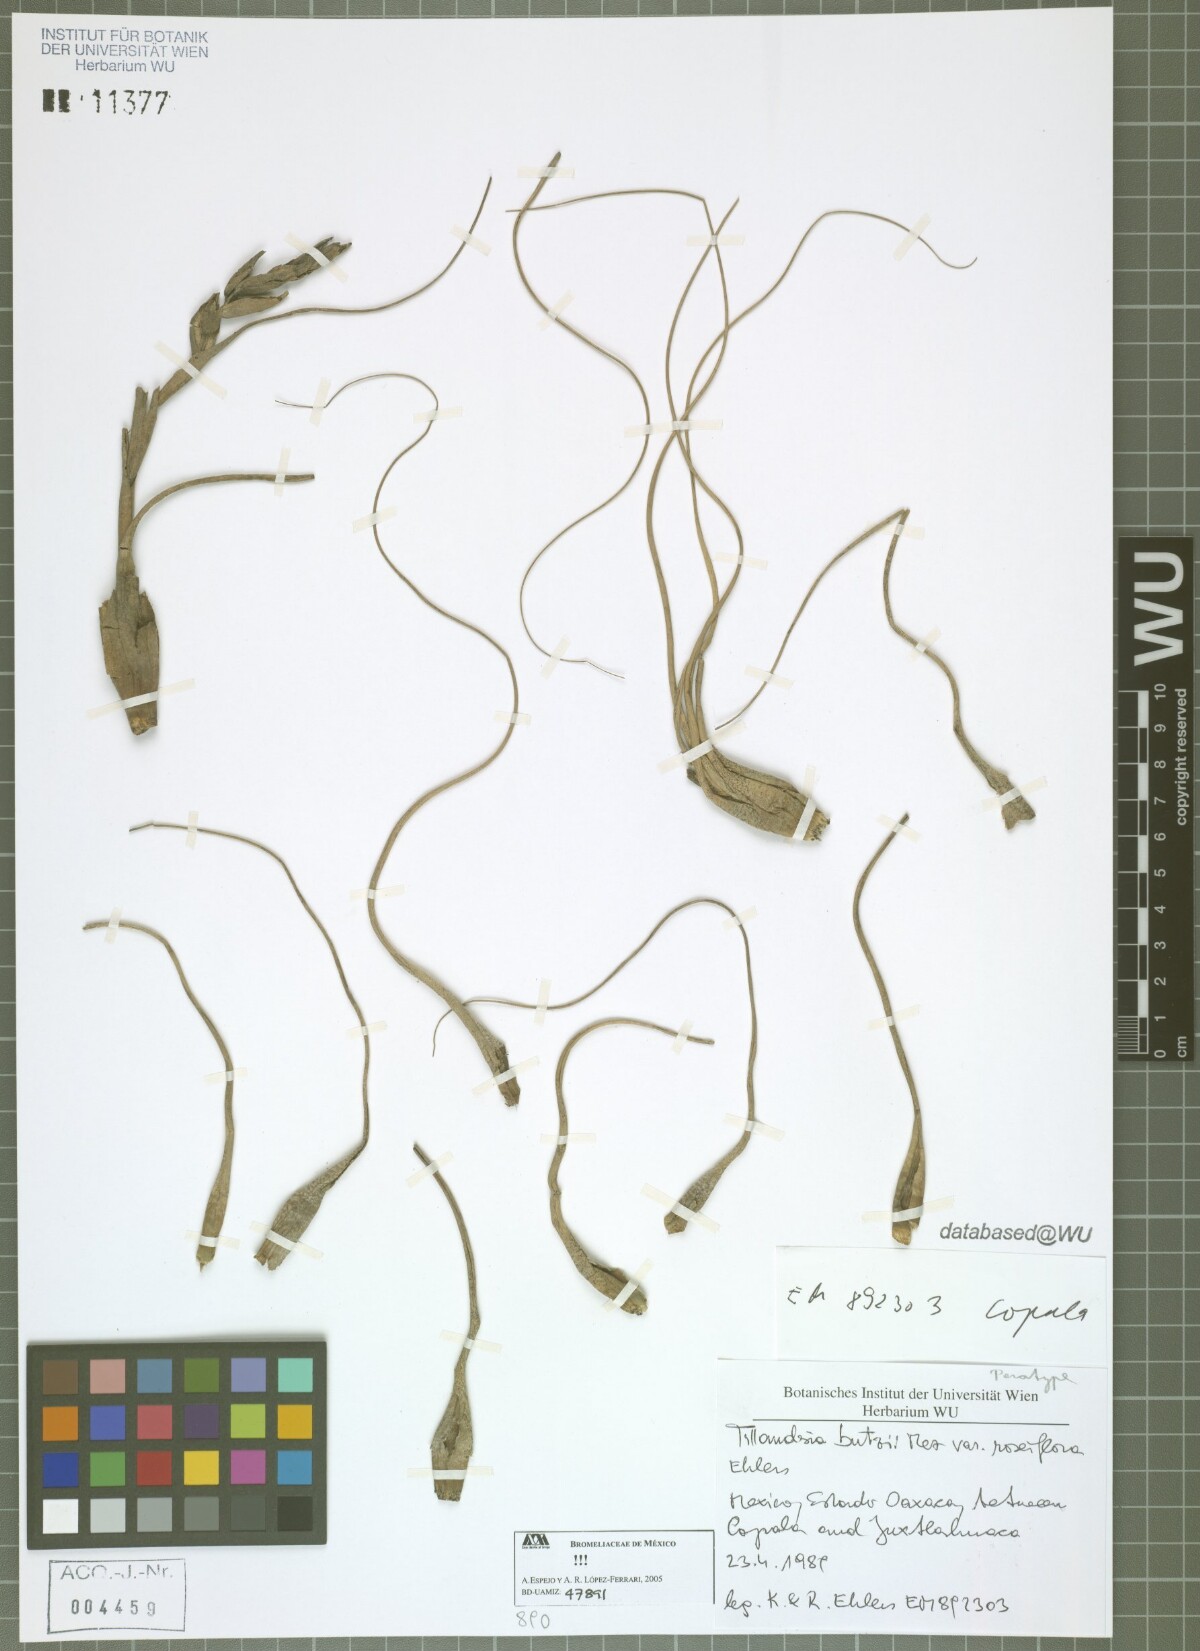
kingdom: Plantae
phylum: Tracheophyta
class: Liliopsida
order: Poales
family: Bromeliaceae
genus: Tillandsia
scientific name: Tillandsia butzii
